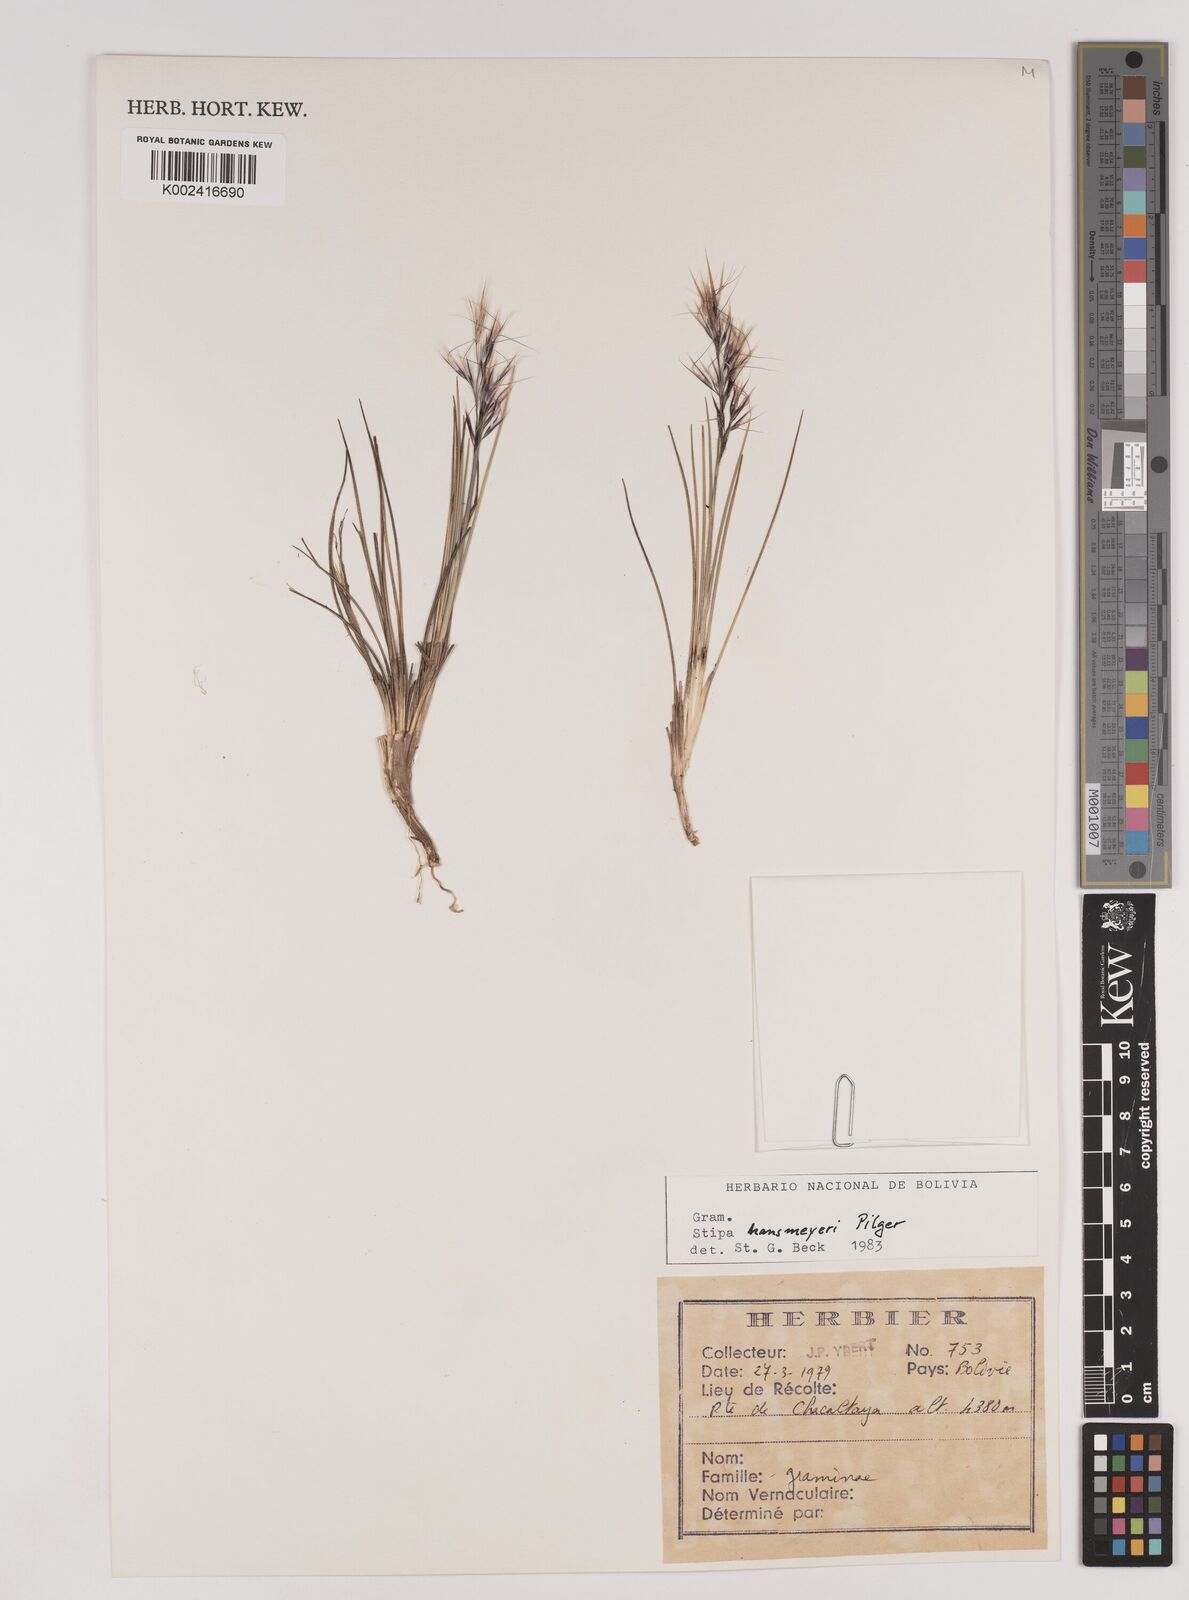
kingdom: Plantae
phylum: Tracheophyta
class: Liliopsida
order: Poales
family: Poaceae
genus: Stipa
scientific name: Stipa hans-meyeri
